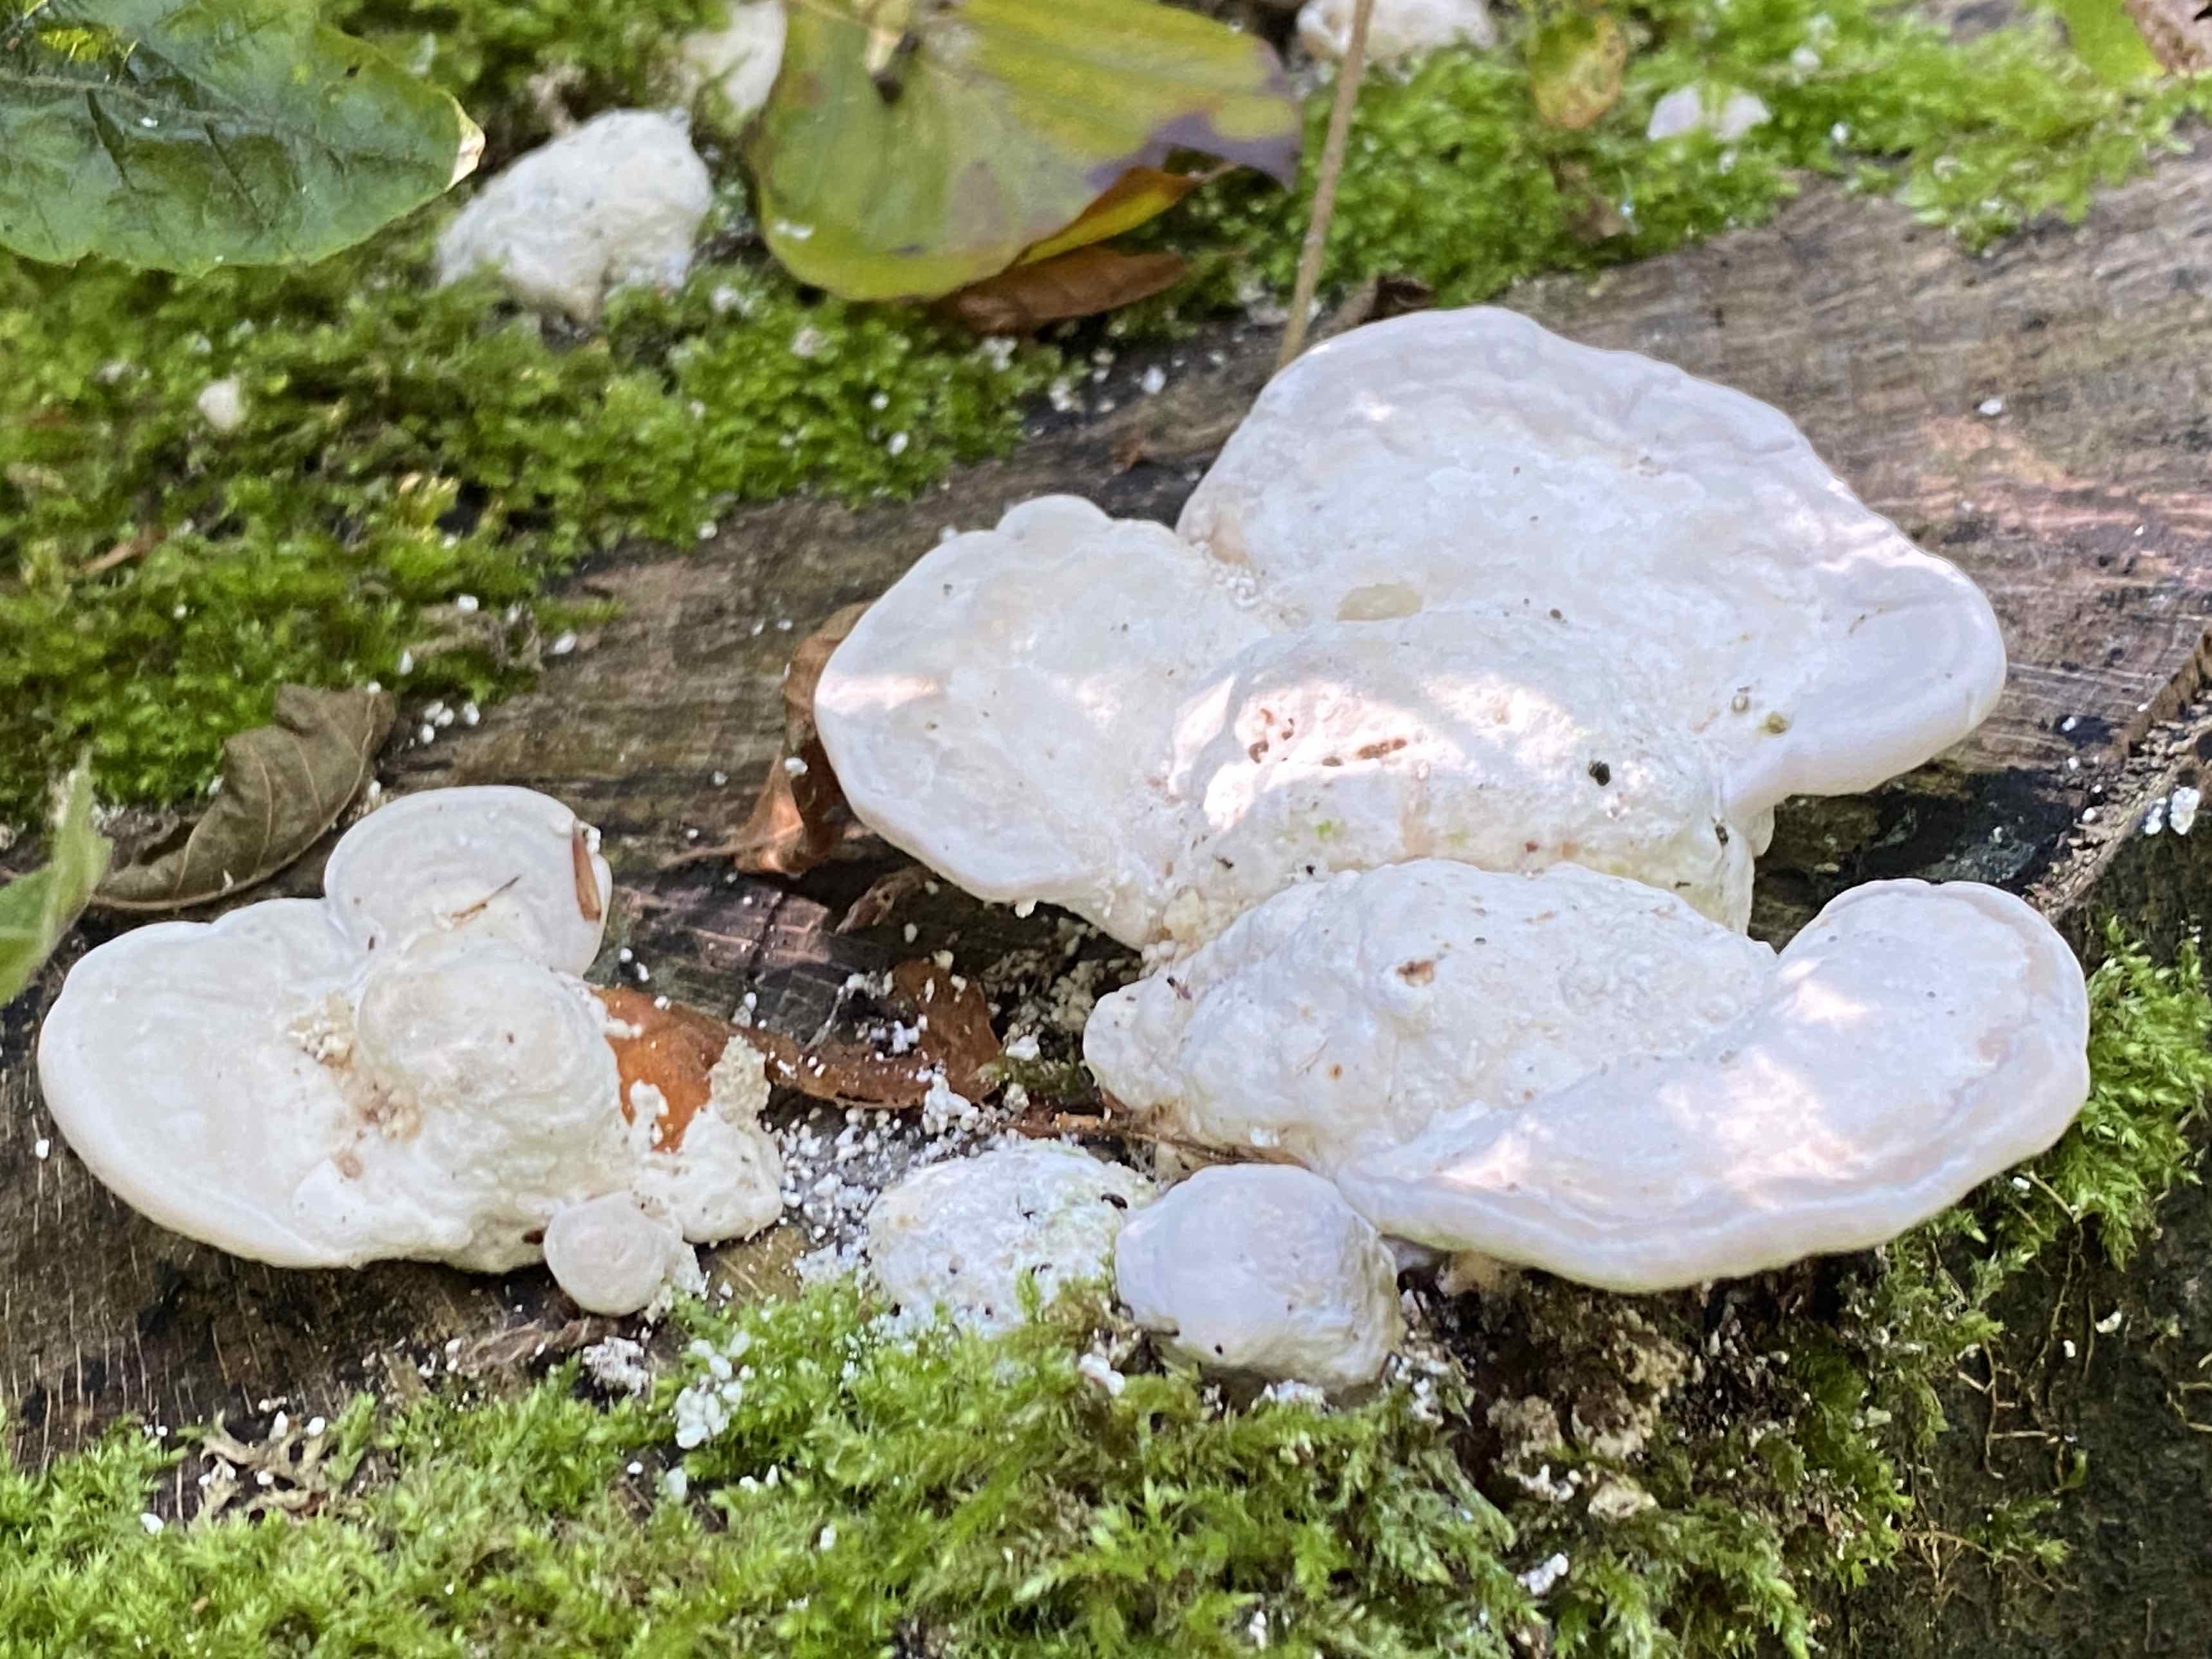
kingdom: Fungi
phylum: Basidiomycota
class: Agaricomycetes
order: Polyporales
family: Polyporaceae
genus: Trametes
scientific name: Trametes gibbosa
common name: puklet læderporesvamp
